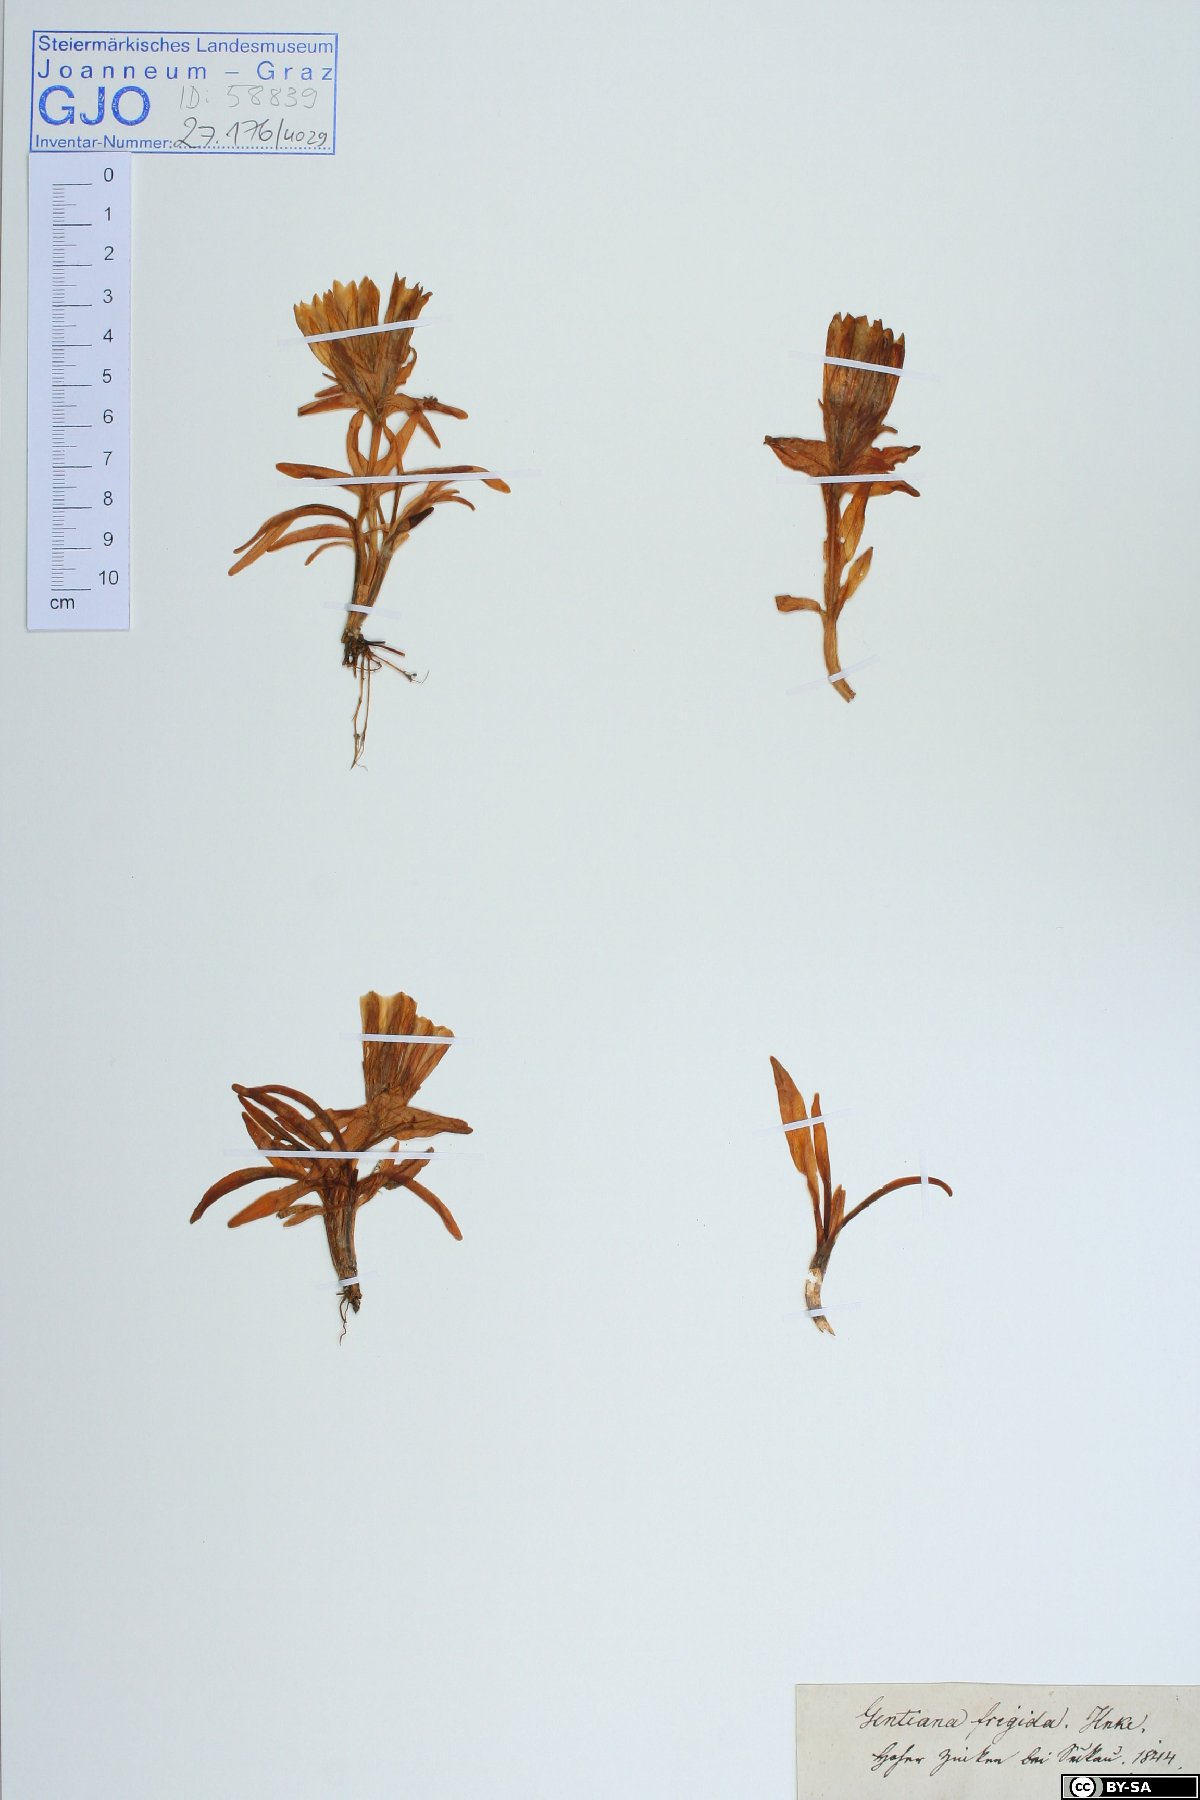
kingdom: Plantae
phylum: Tracheophyta
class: Magnoliopsida
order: Gentianales
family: Gentianaceae
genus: Gentiana
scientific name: Gentiana frigida
